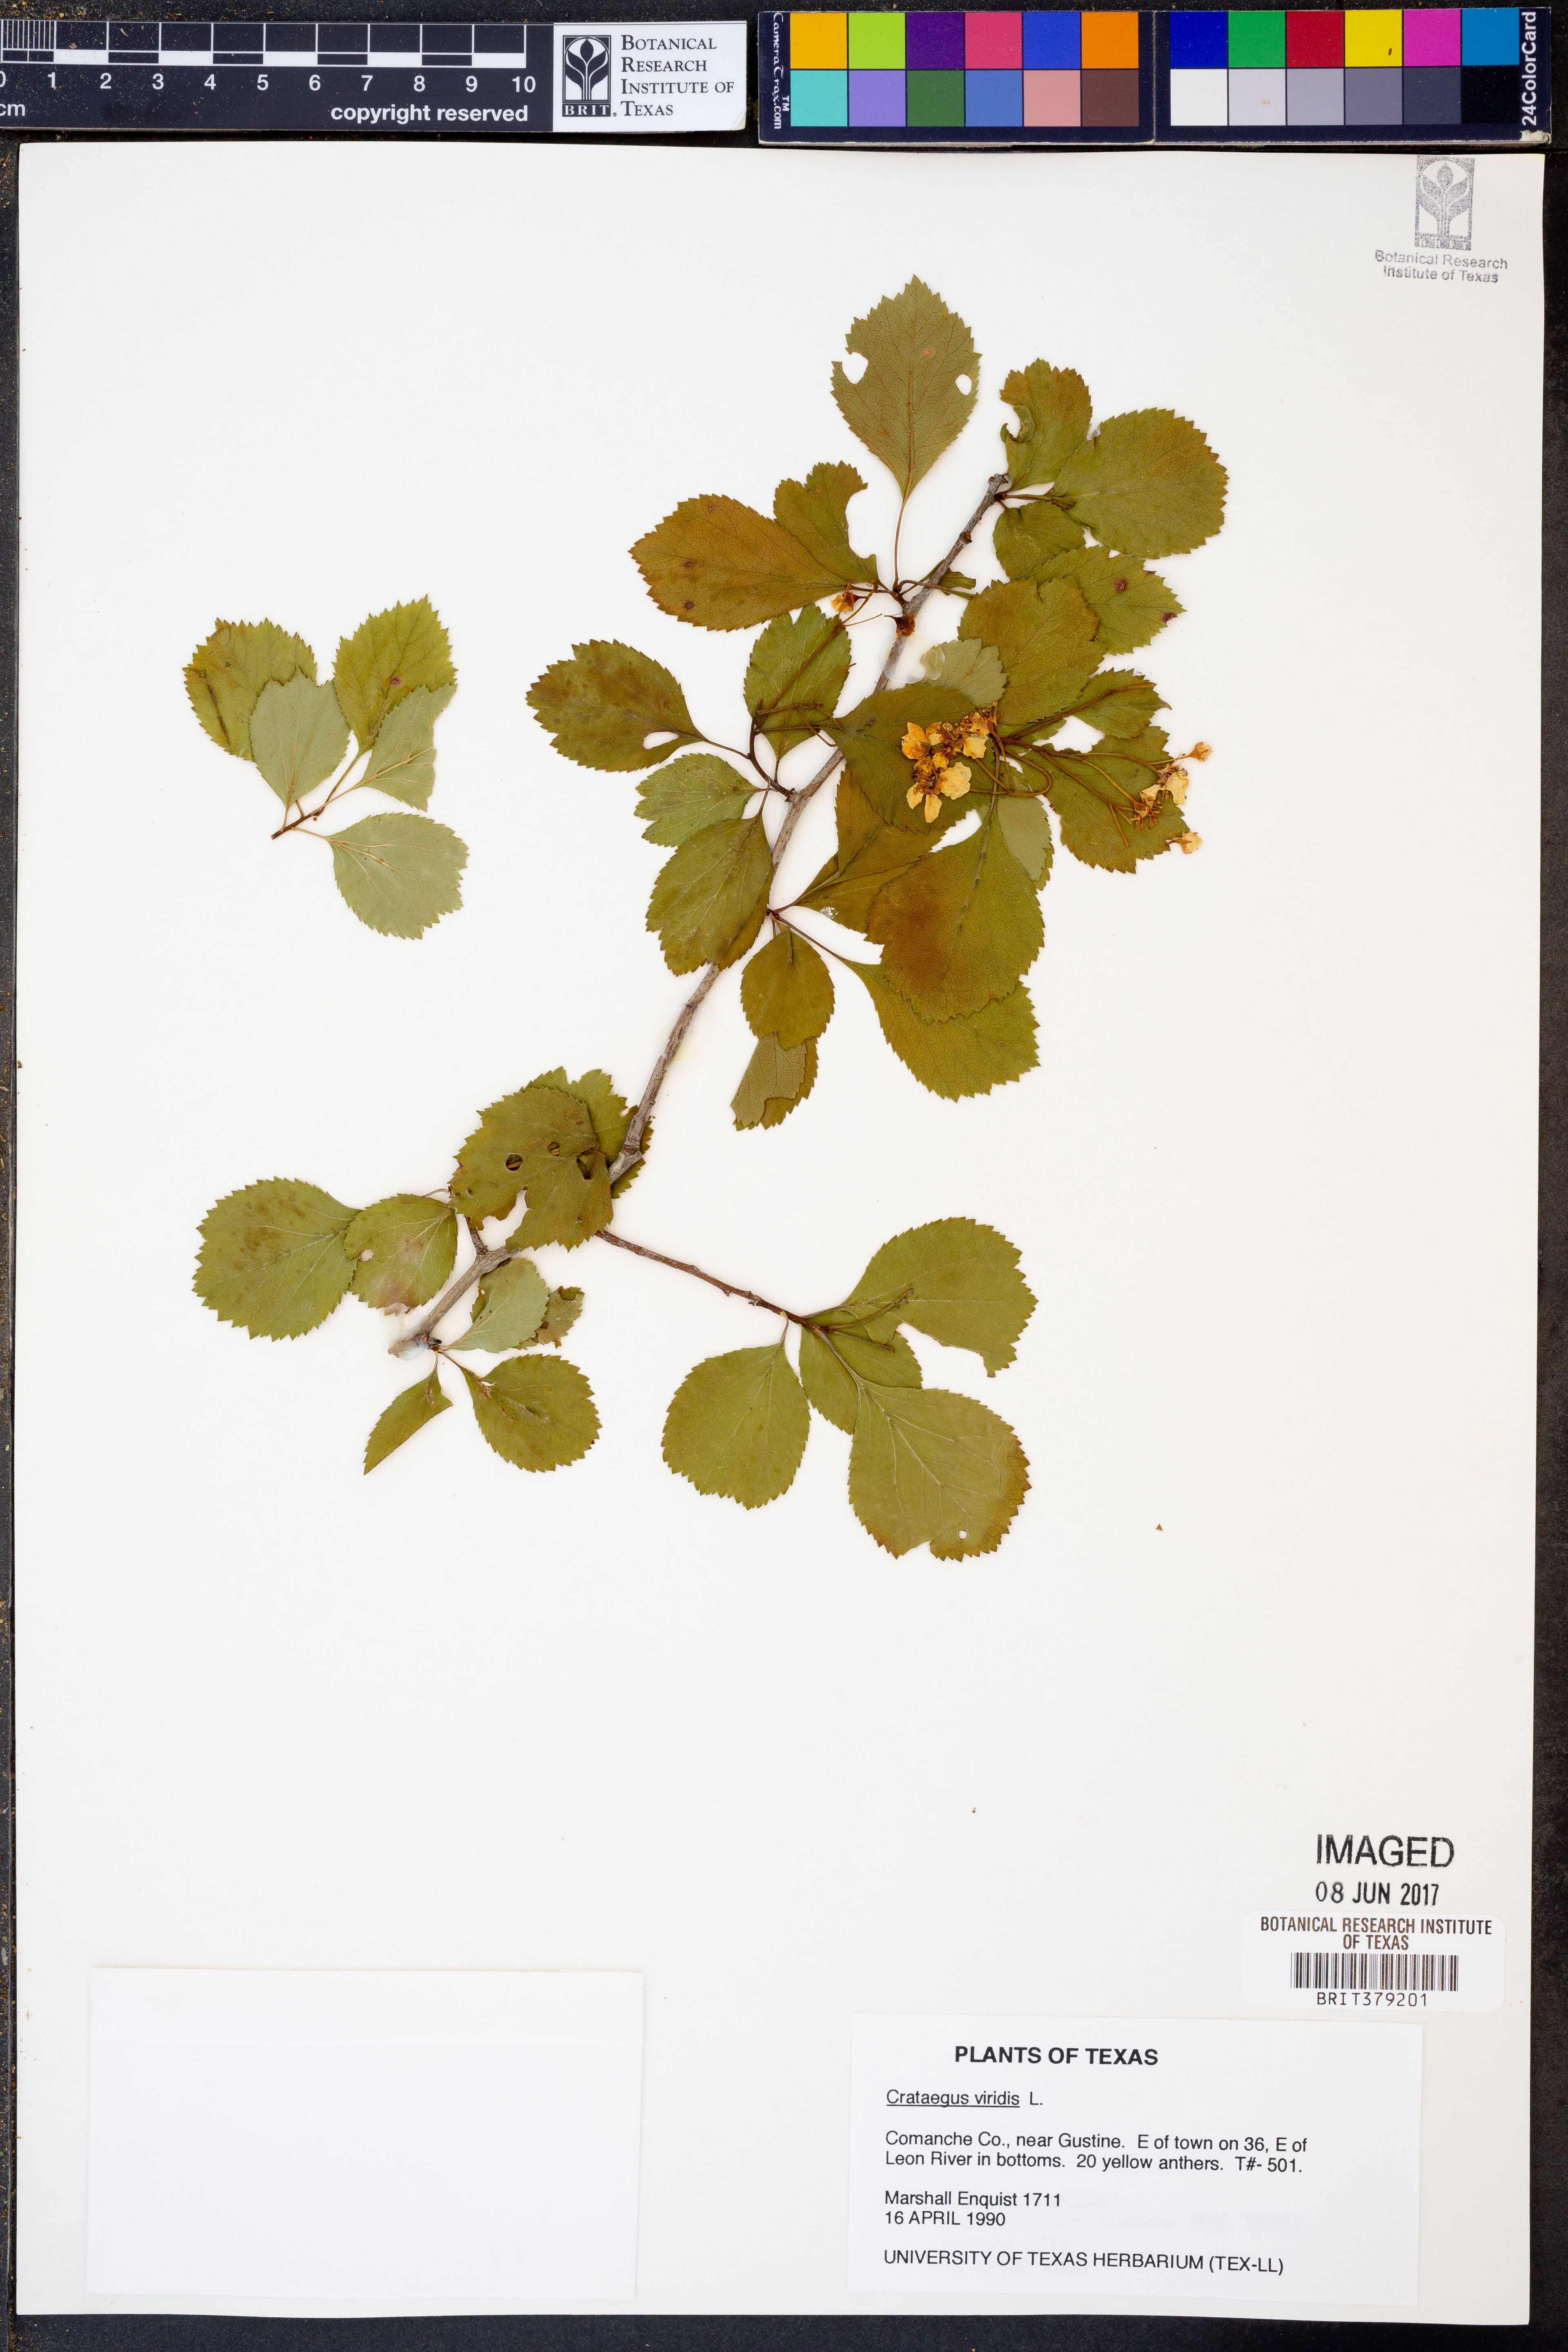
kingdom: Plantae
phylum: Tracheophyta
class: Magnoliopsida
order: Rosales
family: Rosaceae
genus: Crataegus
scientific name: Crataegus viridis
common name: Southernthorn
